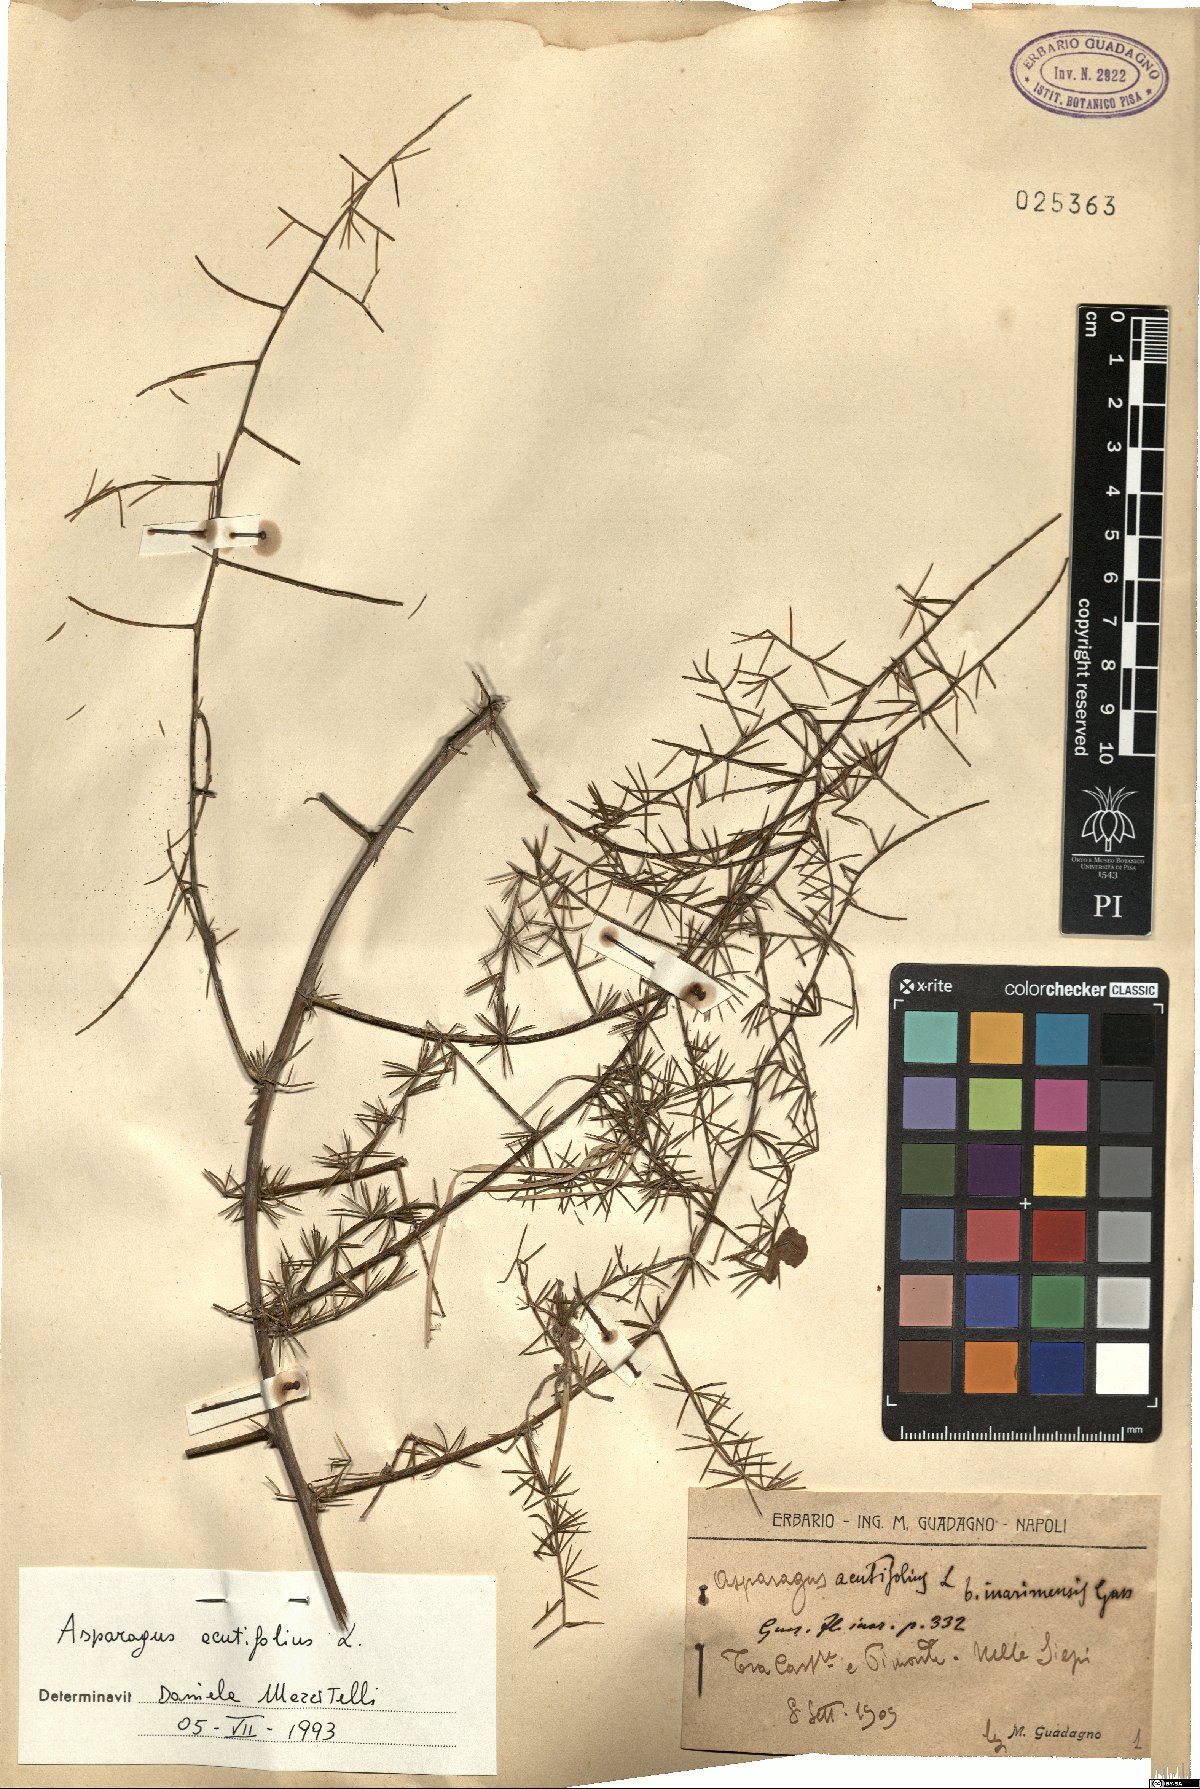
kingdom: Plantae
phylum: Tracheophyta
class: Liliopsida
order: Asparagales
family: Asparagaceae
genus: Asparagus
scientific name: Asparagus acutifolius
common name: Wild asparagus
